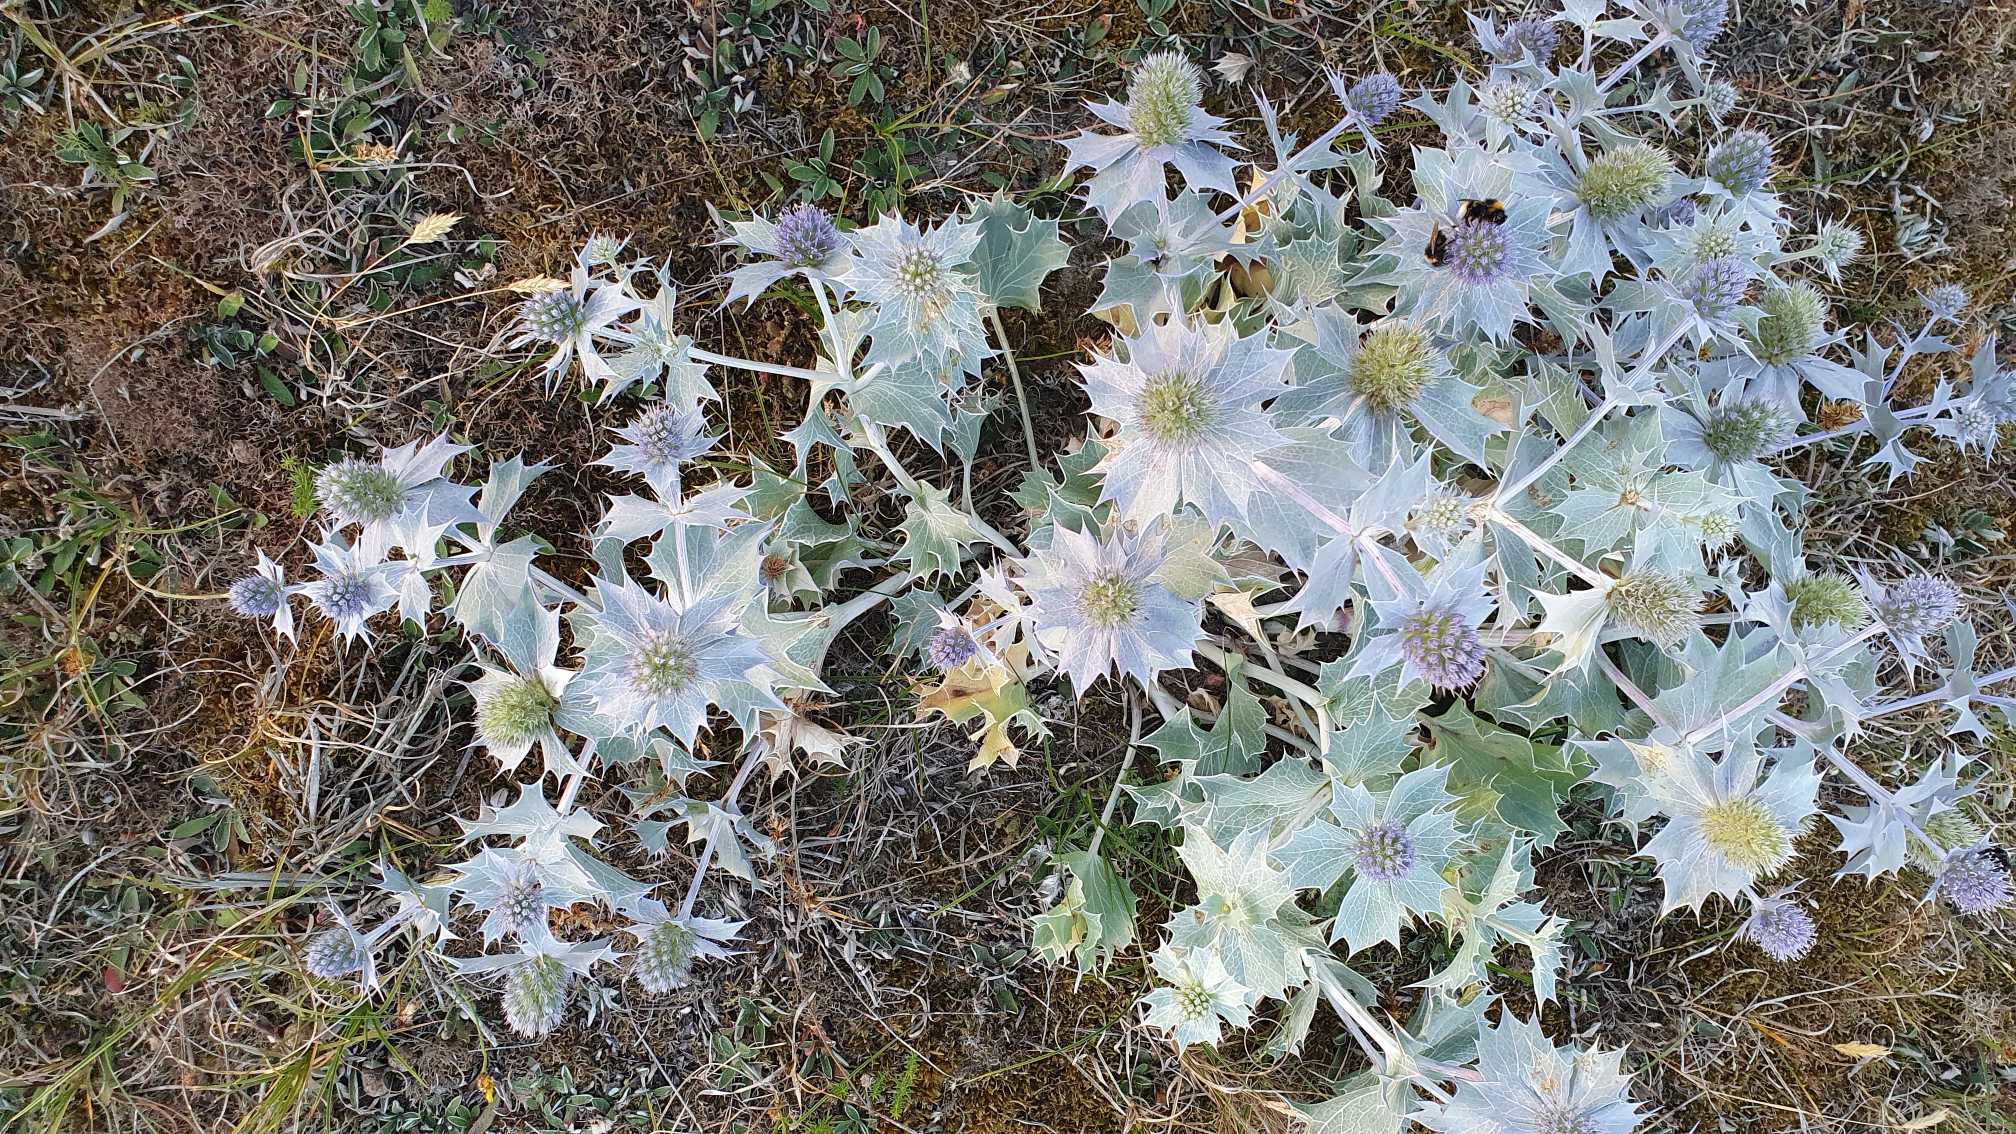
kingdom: Plantae
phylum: Tracheophyta
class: Magnoliopsida
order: Apiales
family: Apiaceae
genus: Eryngium
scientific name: Eryngium maritimum
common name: Strand-mandstro
